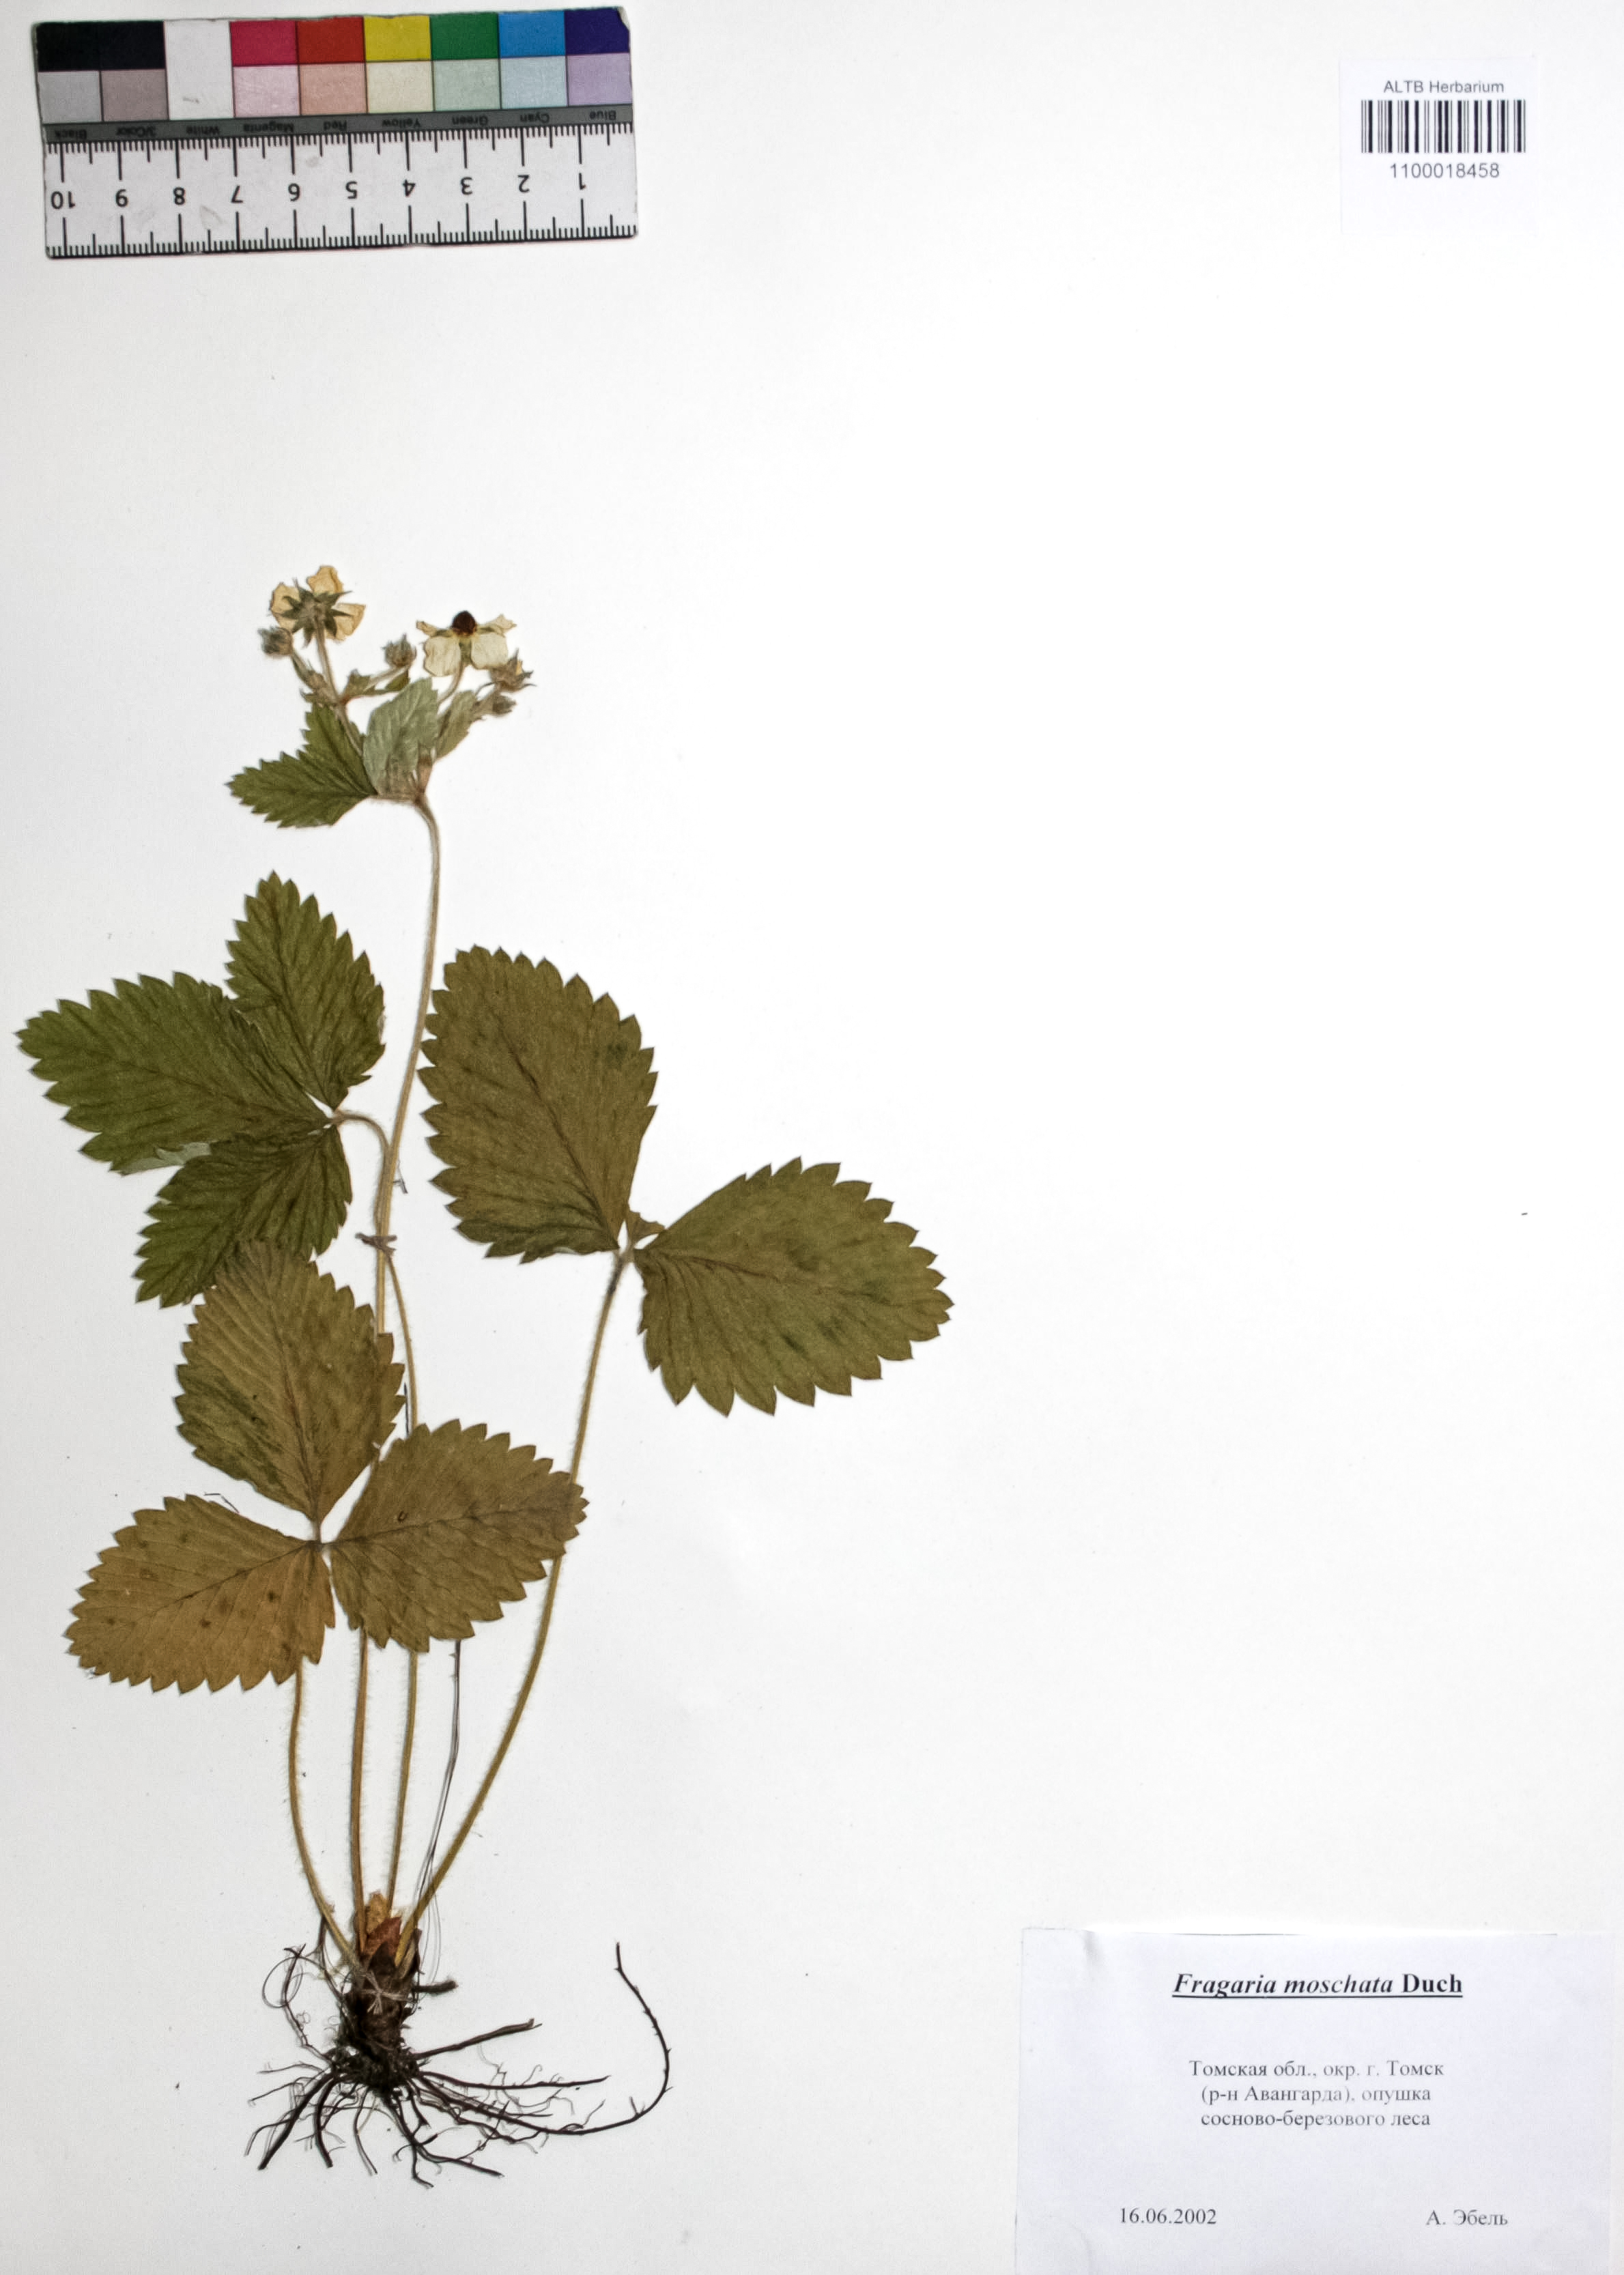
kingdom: Plantae
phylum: Tracheophyta
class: Magnoliopsida
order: Rosales
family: Rosaceae
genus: Fragaria
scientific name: Fragaria moschata
